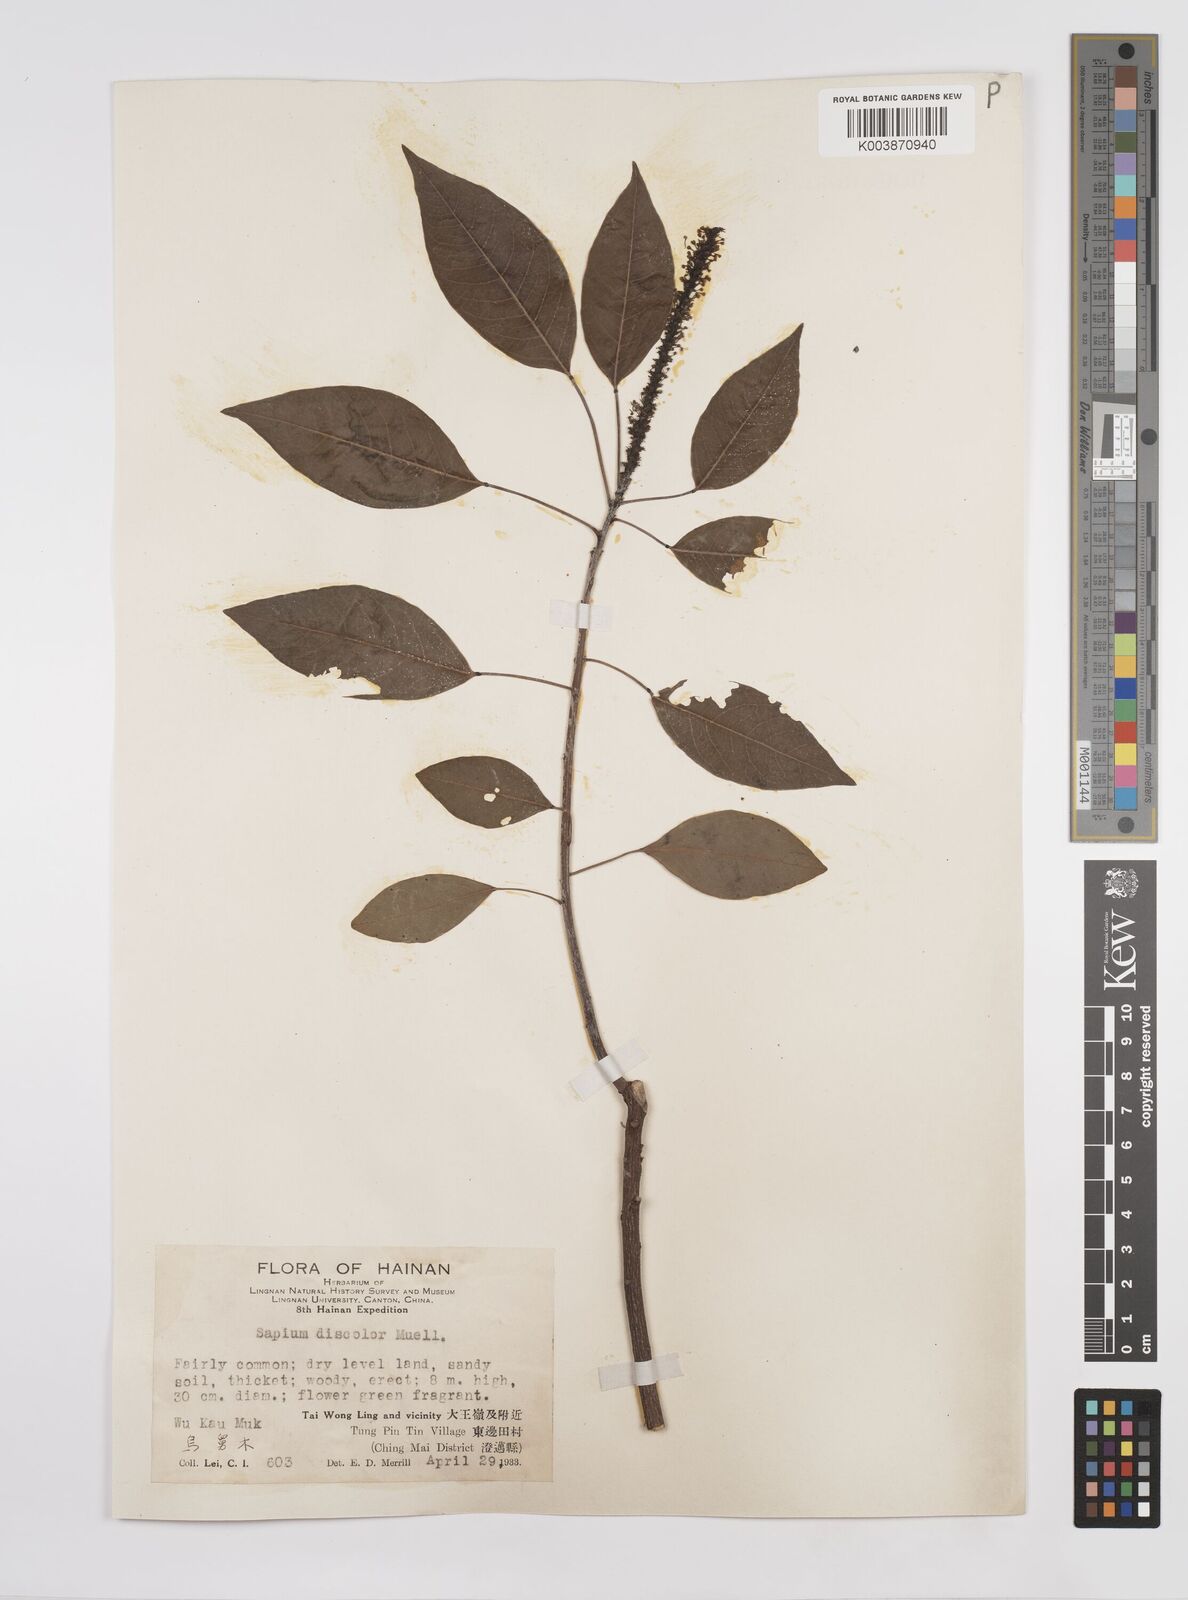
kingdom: Plantae
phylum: Tracheophyta
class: Magnoliopsida
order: Malpighiales
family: Euphorbiaceae
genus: Triadica
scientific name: Triadica cochinchinensis
